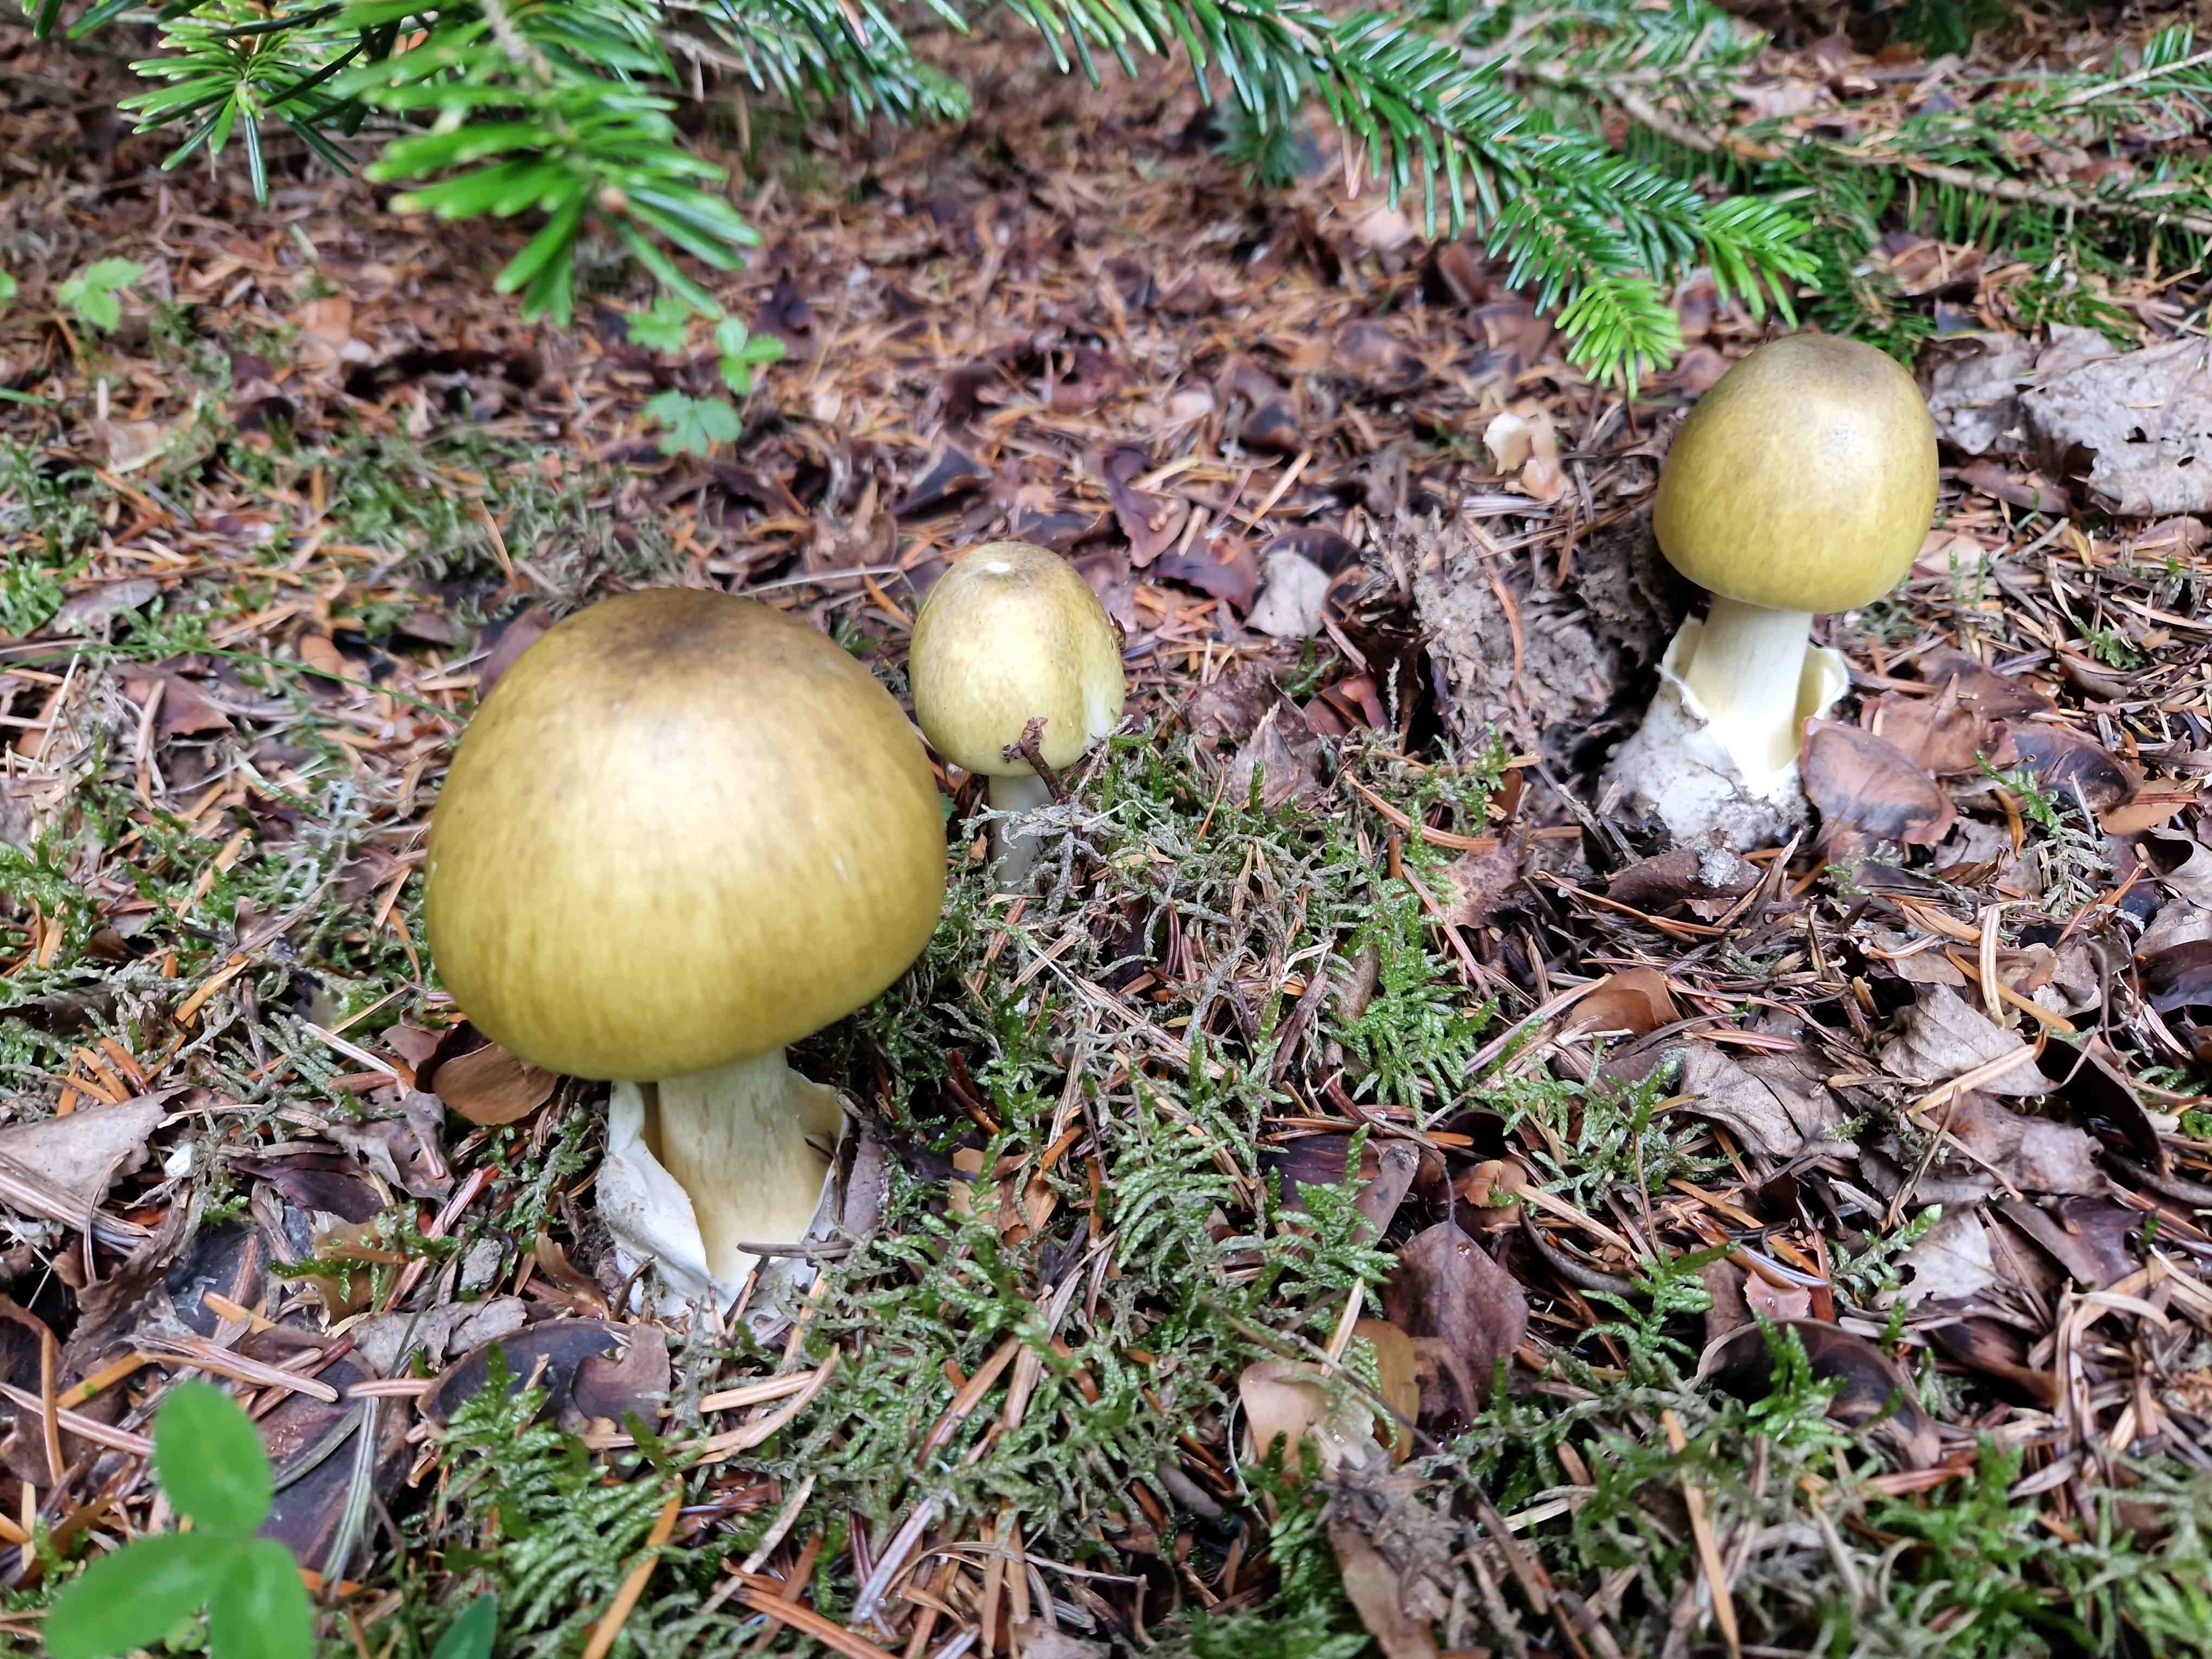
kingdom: Fungi
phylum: Basidiomycota
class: Agaricomycetes
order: Agaricales
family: Amanitaceae
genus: Amanita
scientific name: Amanita phalloides
